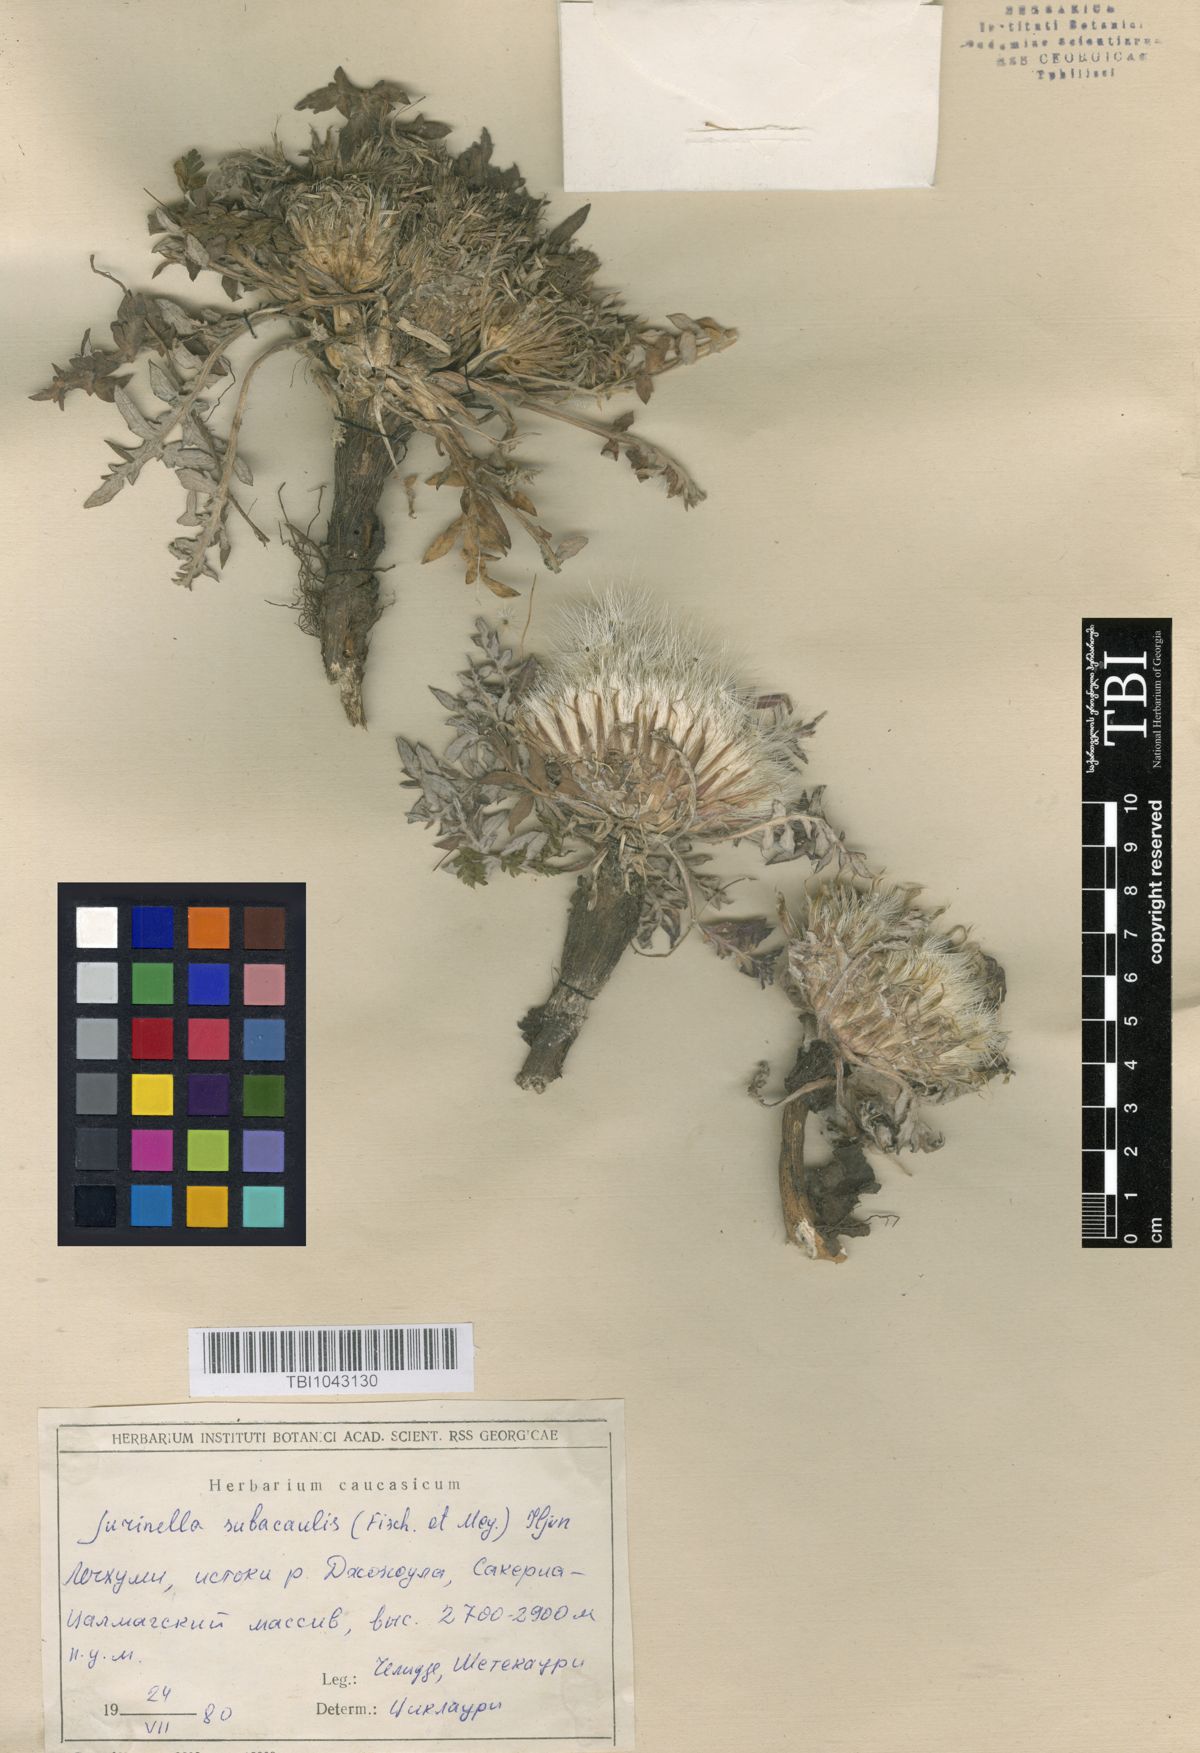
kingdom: Plantae
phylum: Tracheophyta
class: Magnoliopsida
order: Asterales
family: Asteraceae
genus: Jurinea
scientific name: Jurinea moschus
